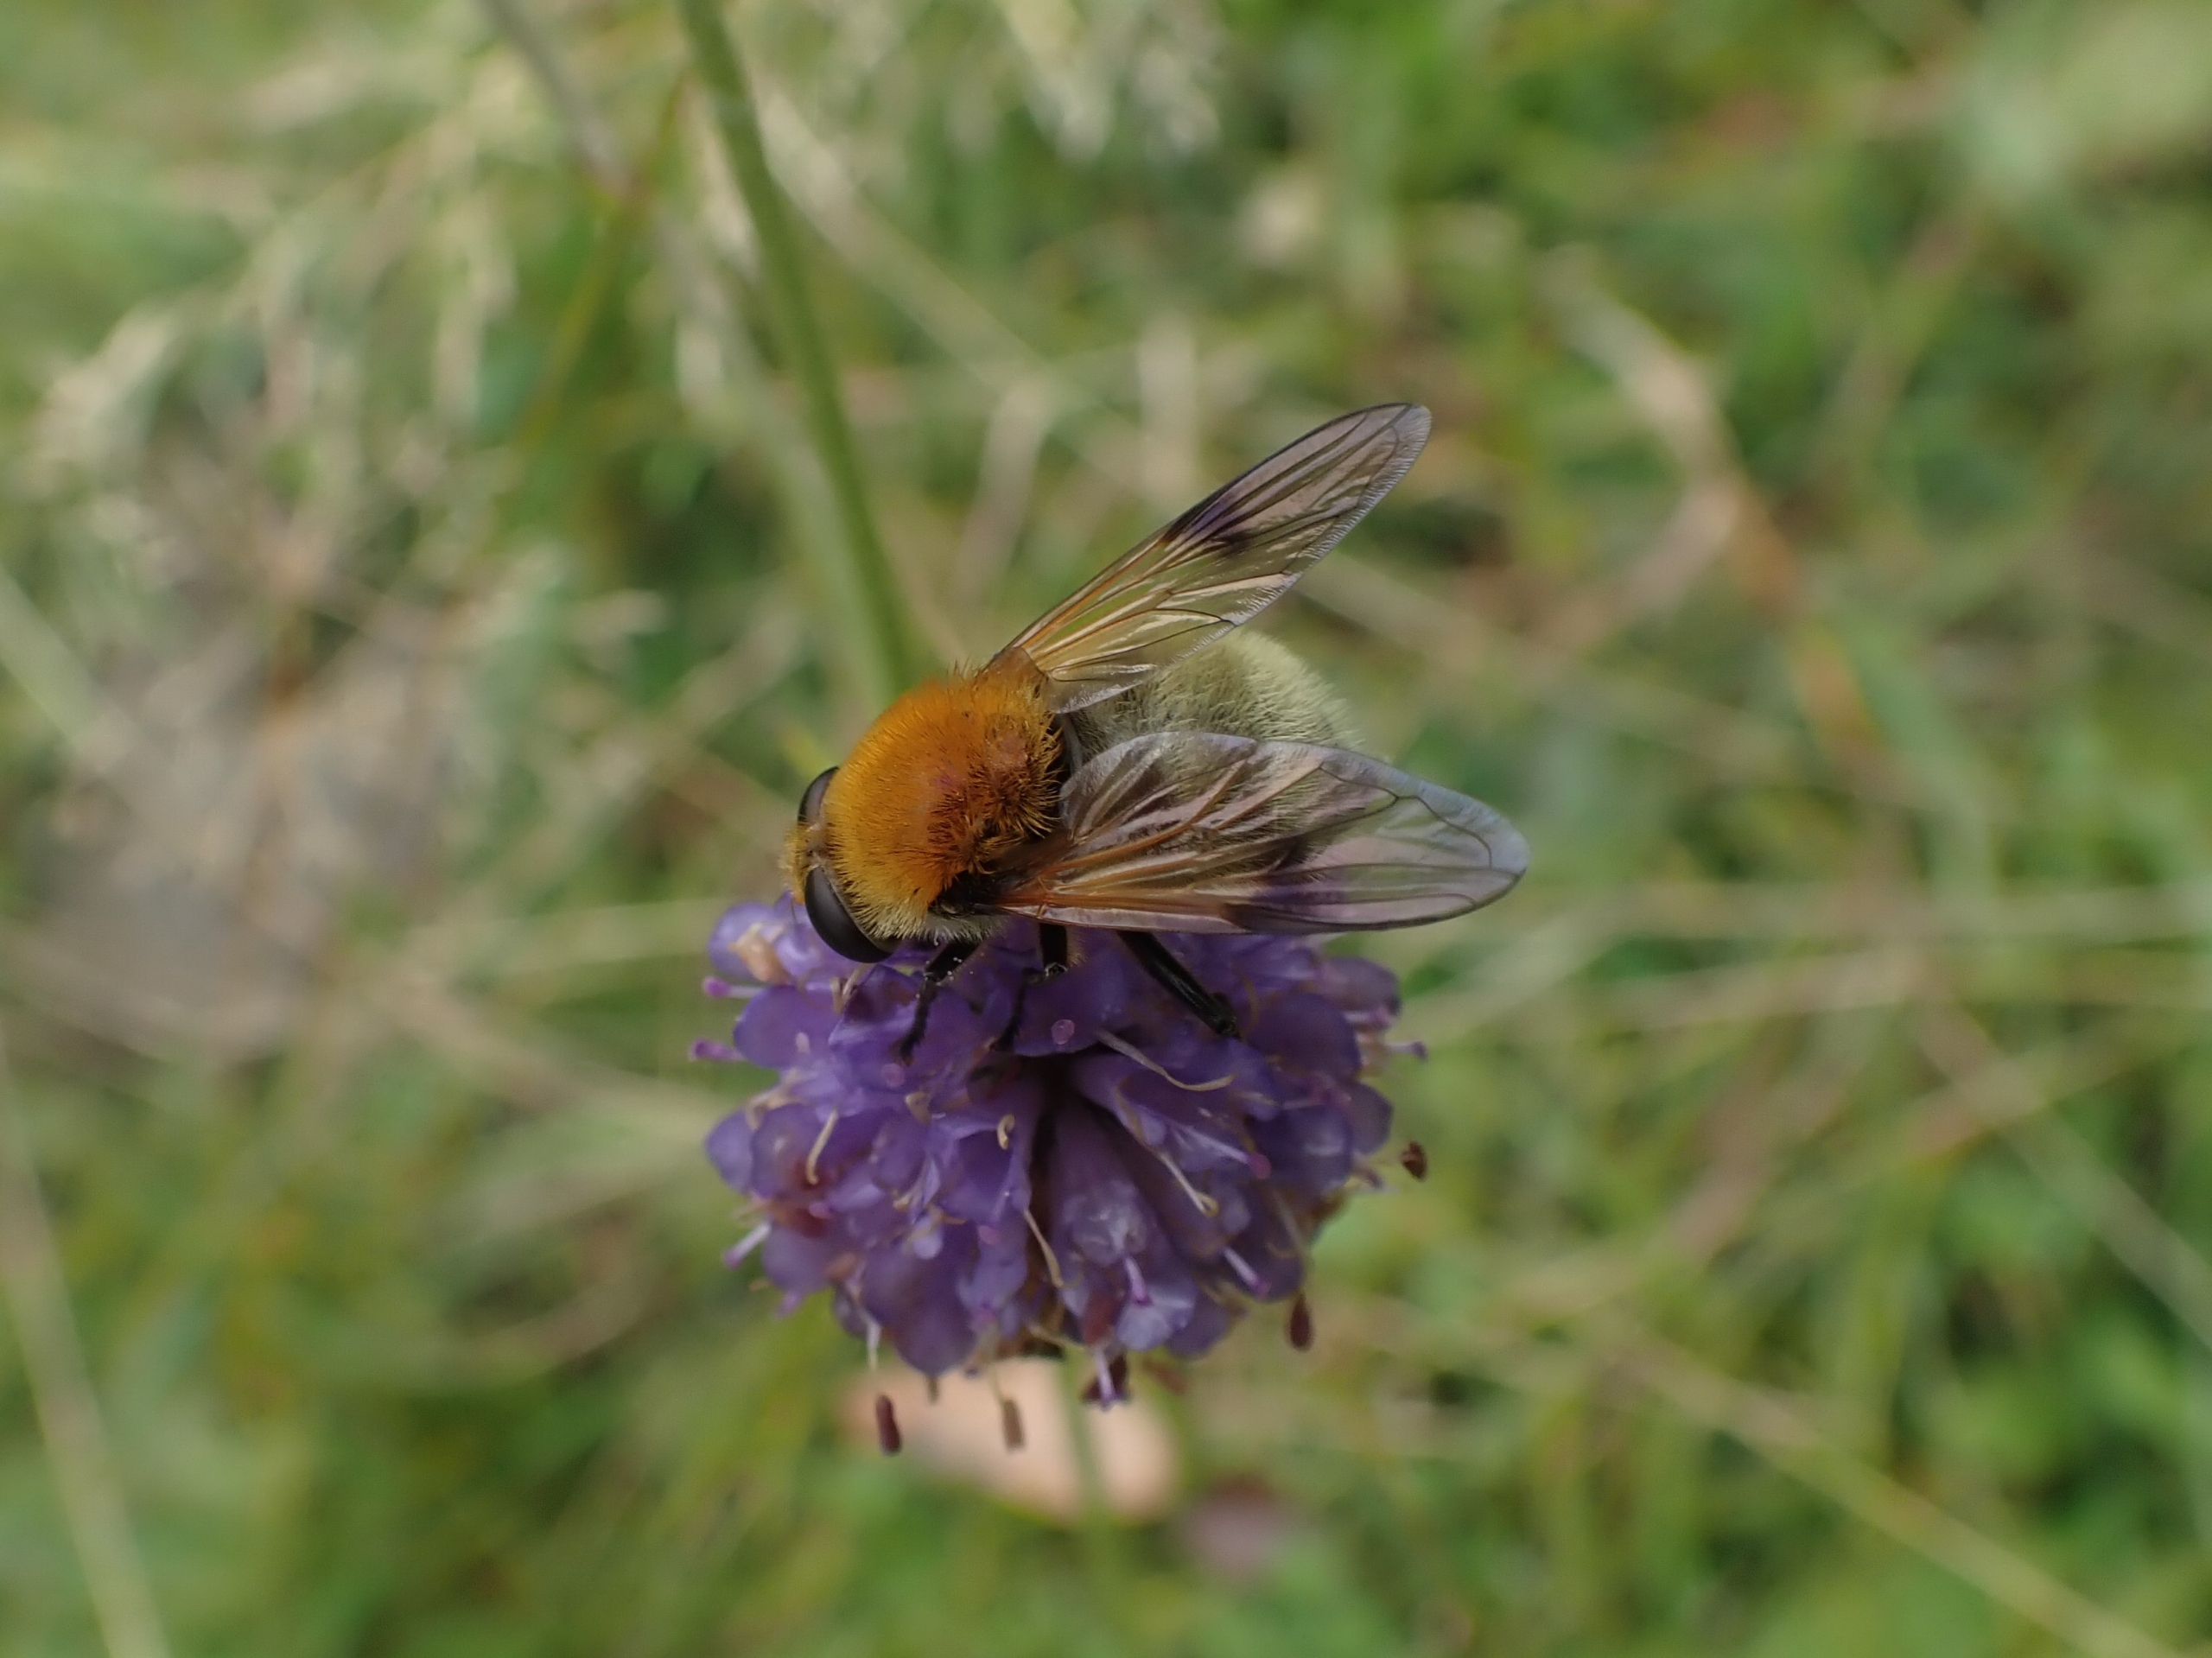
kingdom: Animalia
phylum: Arthropoda
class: Insecta
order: Diptera
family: Syrphidae
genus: Sericomyia
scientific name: Sericomyia superbiens
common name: Brun bjørnesvirreflue
